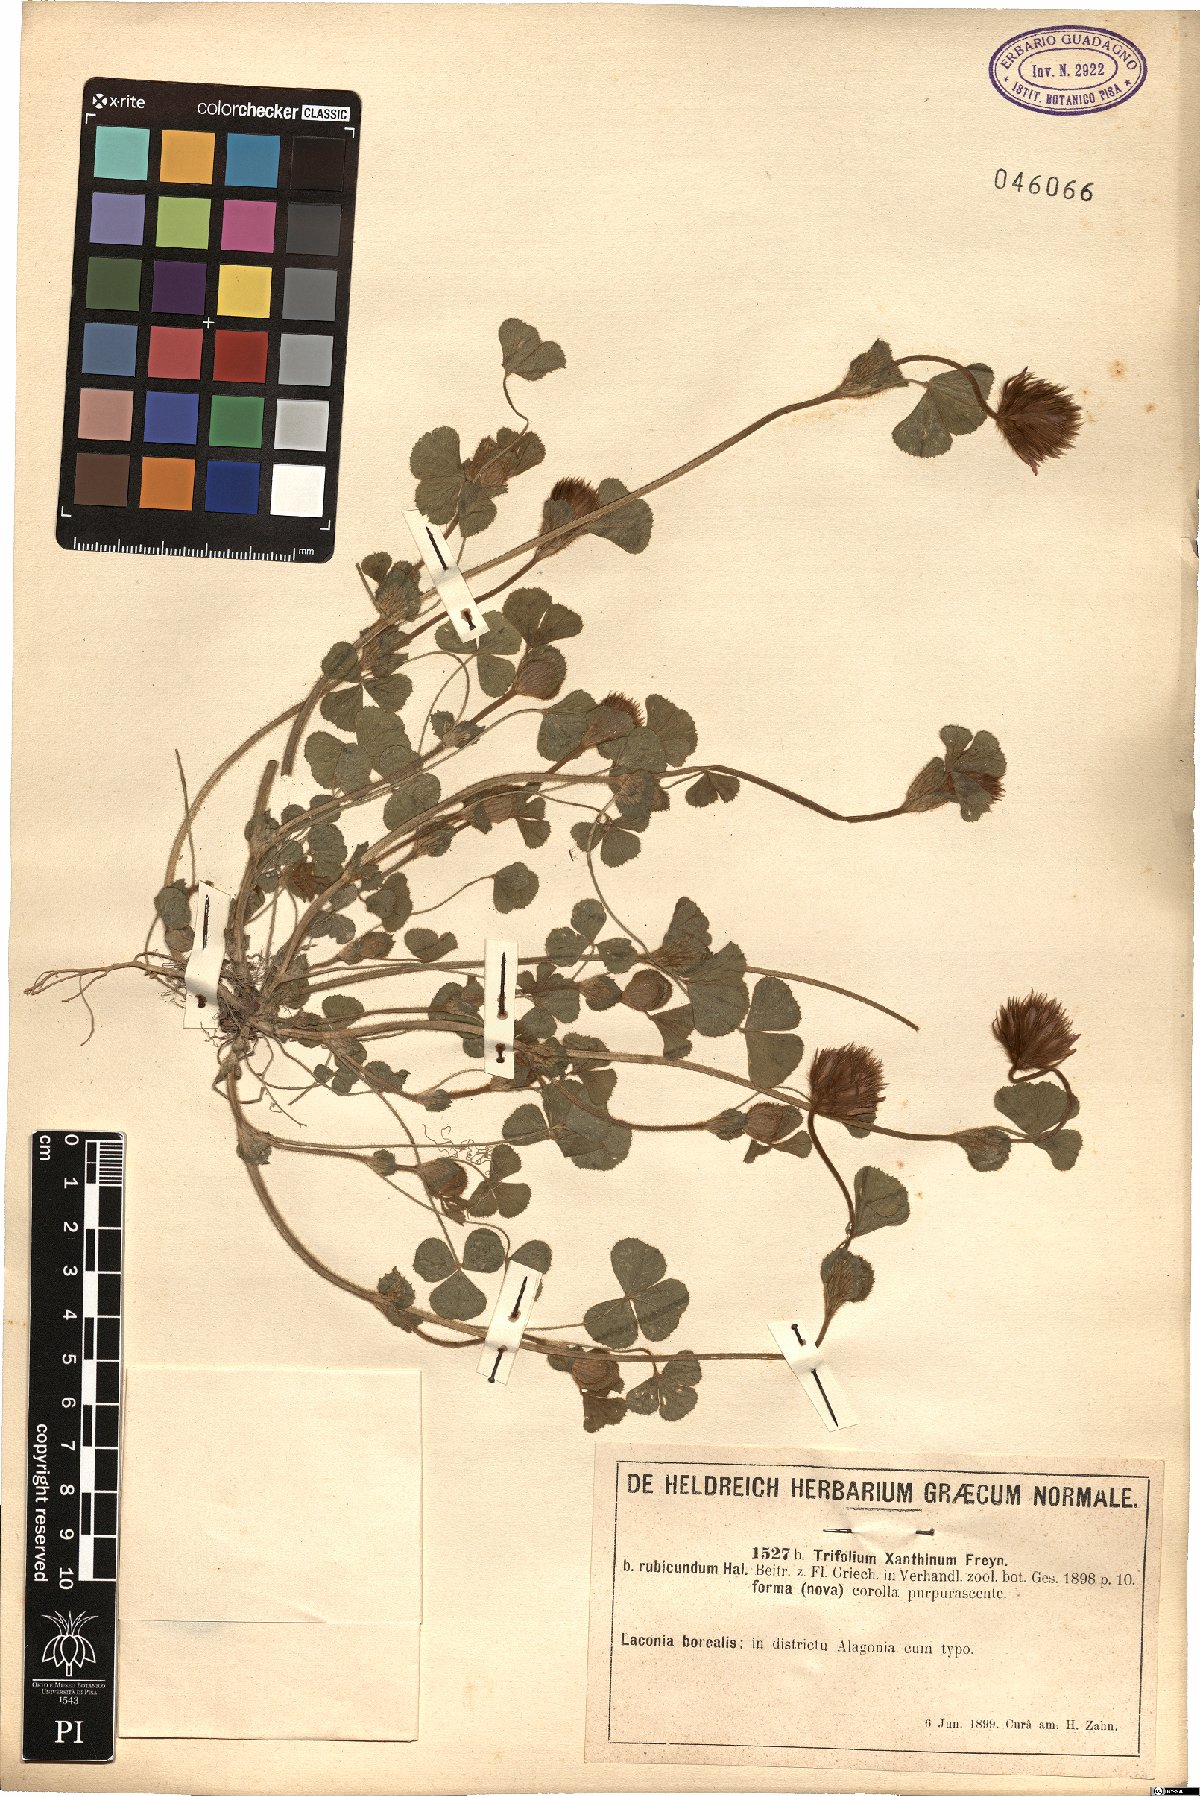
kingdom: Plantae
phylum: Tracheophyta
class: Magnoliopsida
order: Fabales
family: Fabaceae
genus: Trifolium
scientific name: Trifolium xanthinum
